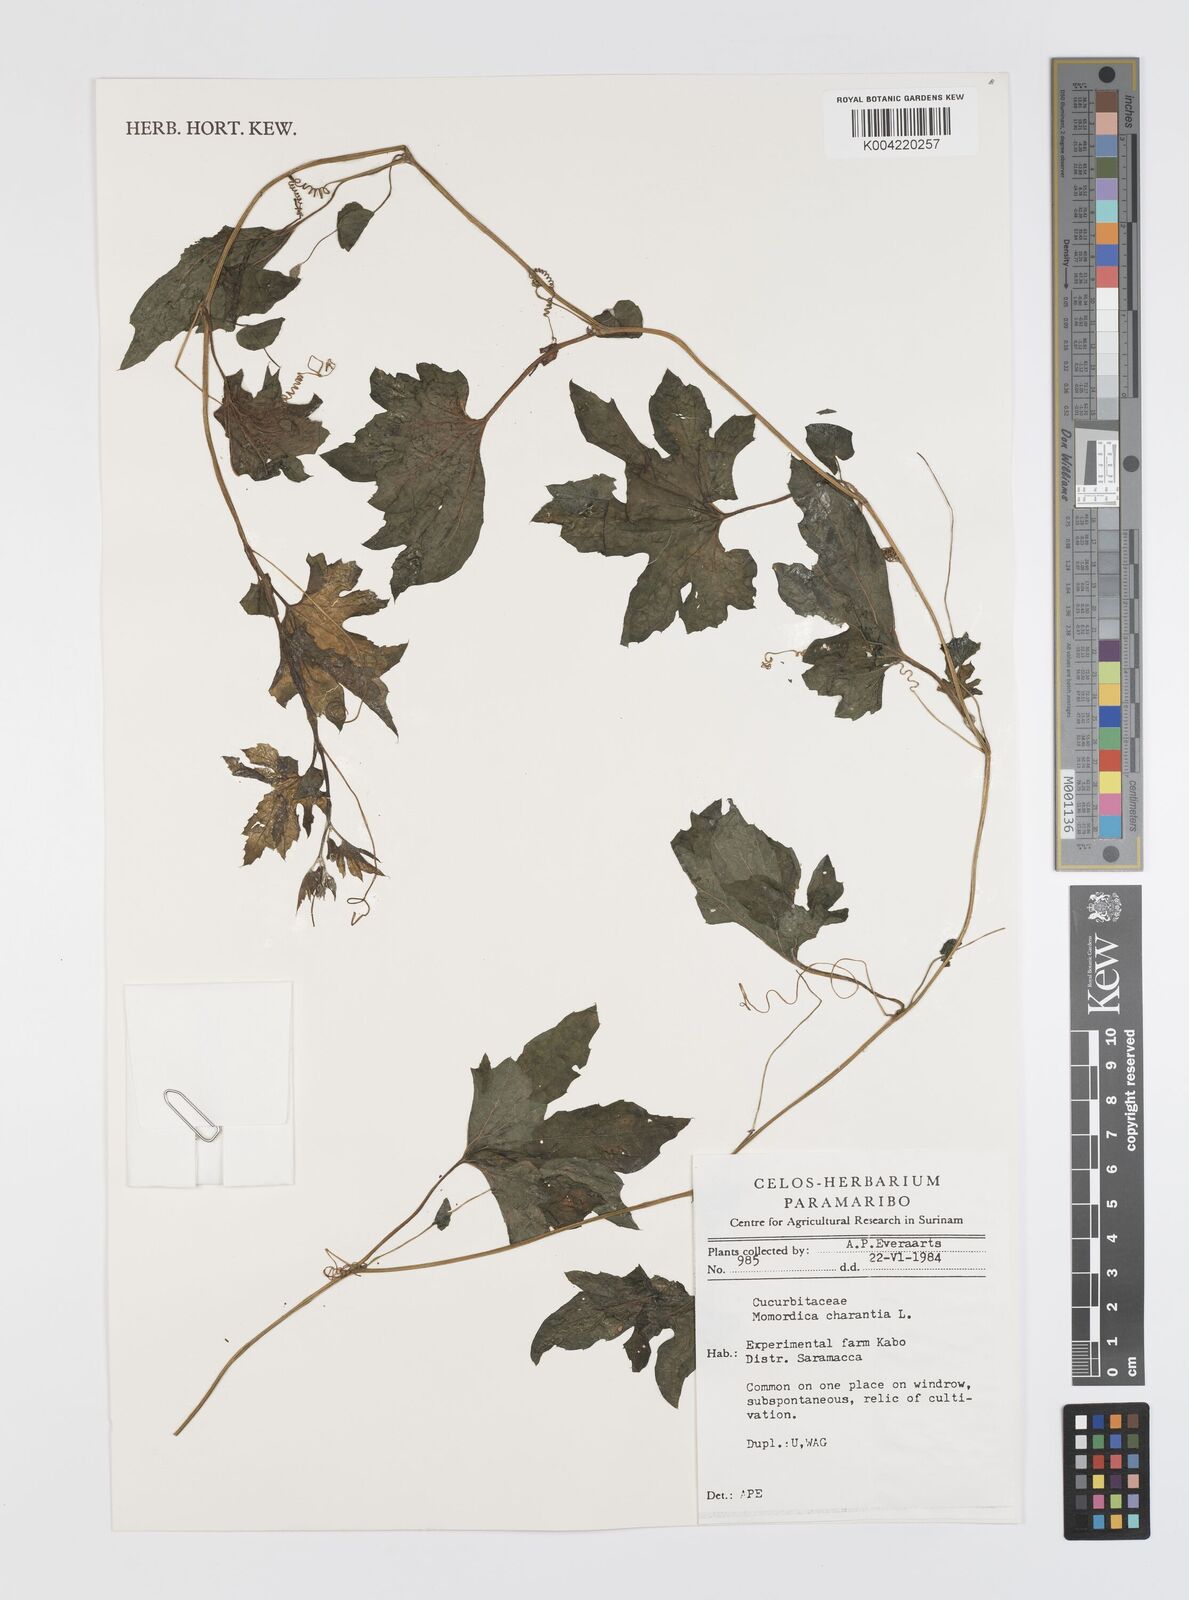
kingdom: Plantae
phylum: Tracheophyta
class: Magnoliopsida
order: Cucurbitales
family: Cucurbitaceae
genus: Momordica
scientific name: Momordica charantia
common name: Balsampear
